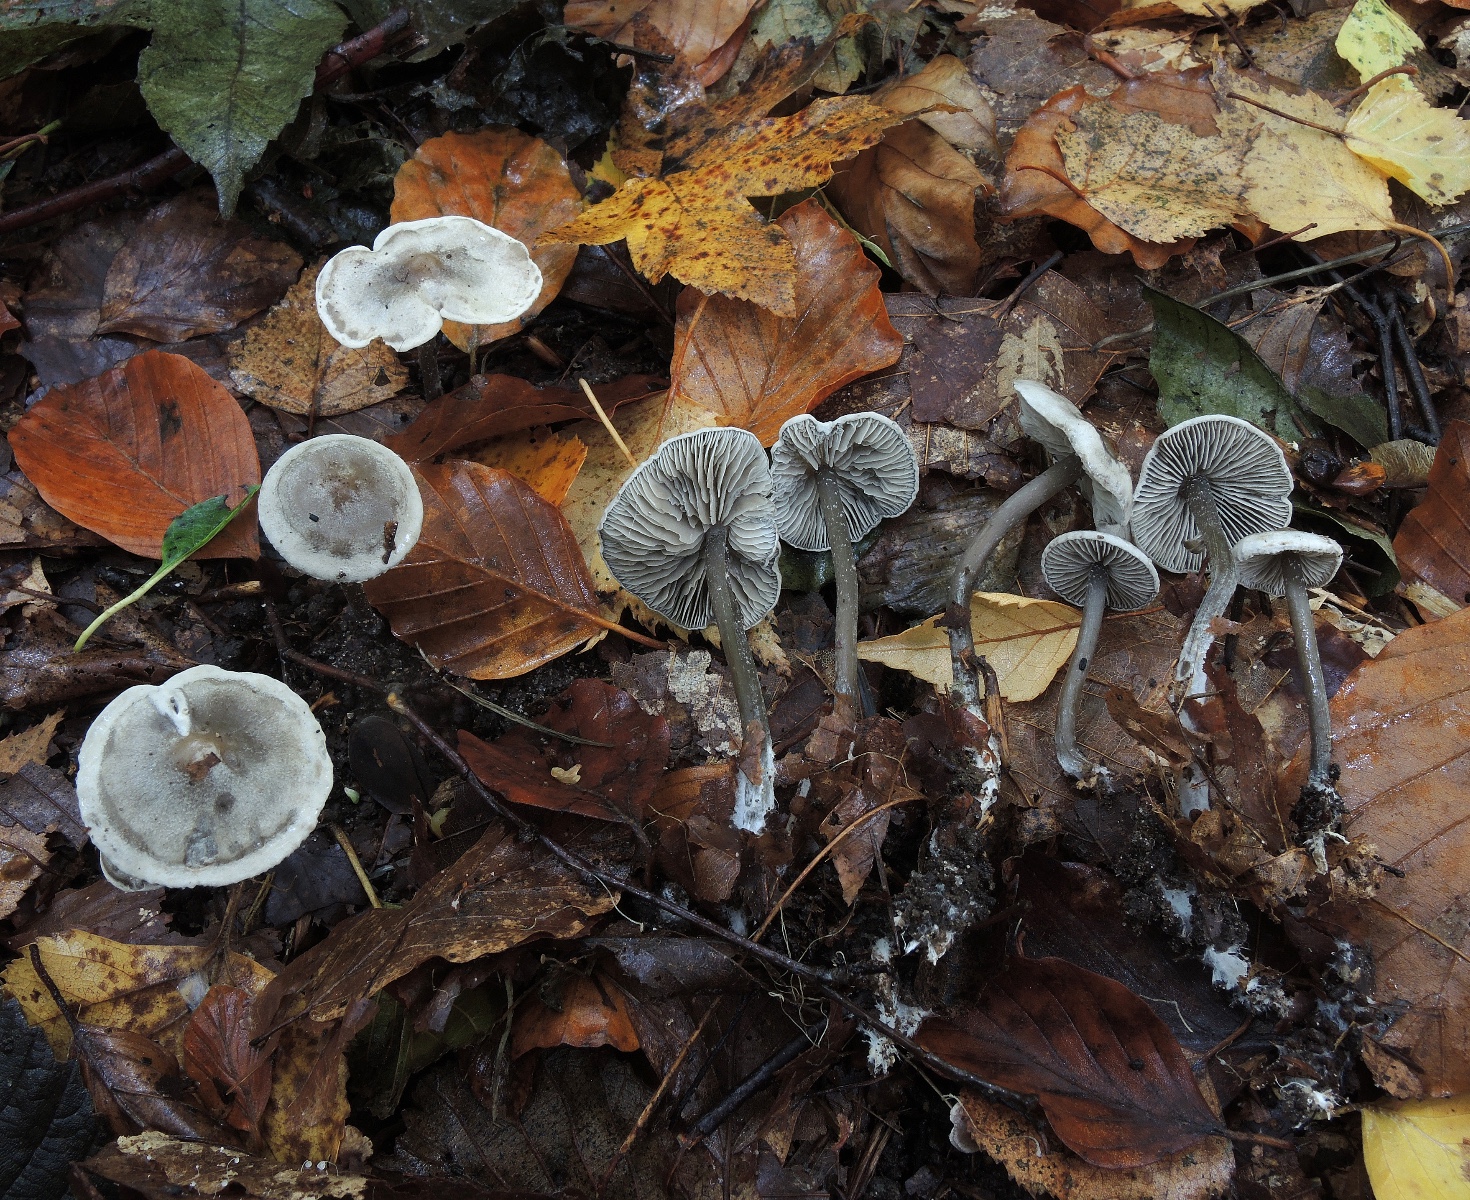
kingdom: Fungi
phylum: Basidiomycota
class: Agaricomycetes
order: Agaricales
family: Lyophyllaceae
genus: Tephrocybe
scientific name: Tephrocybe rancida
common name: mel-gråblad
